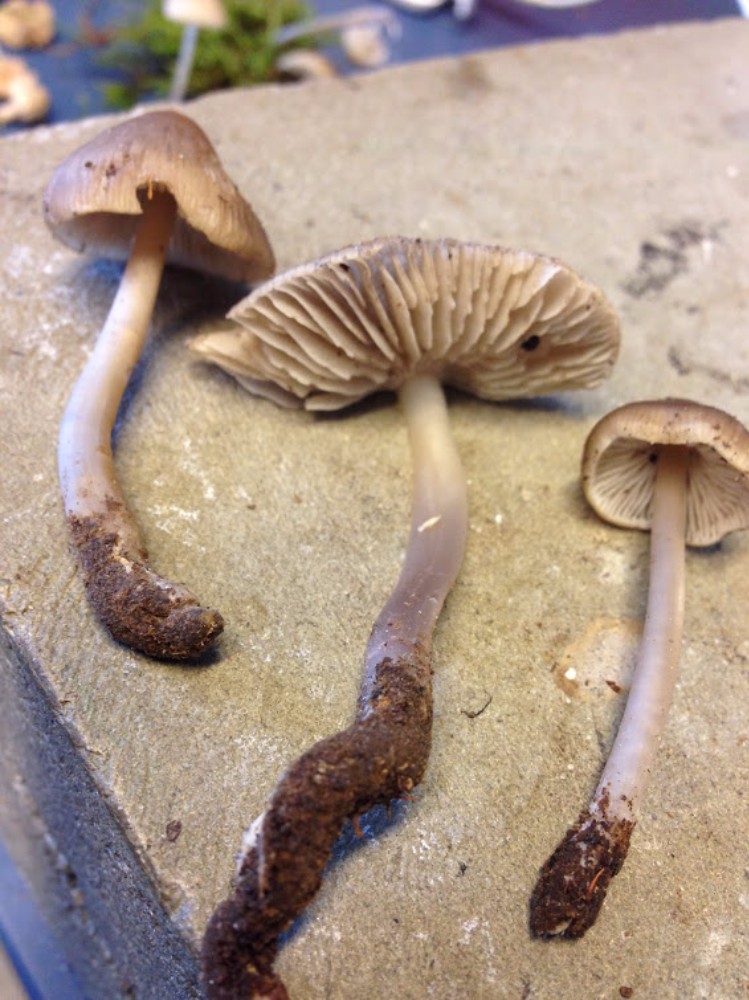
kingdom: Fungi
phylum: Basidiomycota
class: Agaricomycetes
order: Agaricales
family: Mycenaceae
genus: Mycena
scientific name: Mycena galericulata
